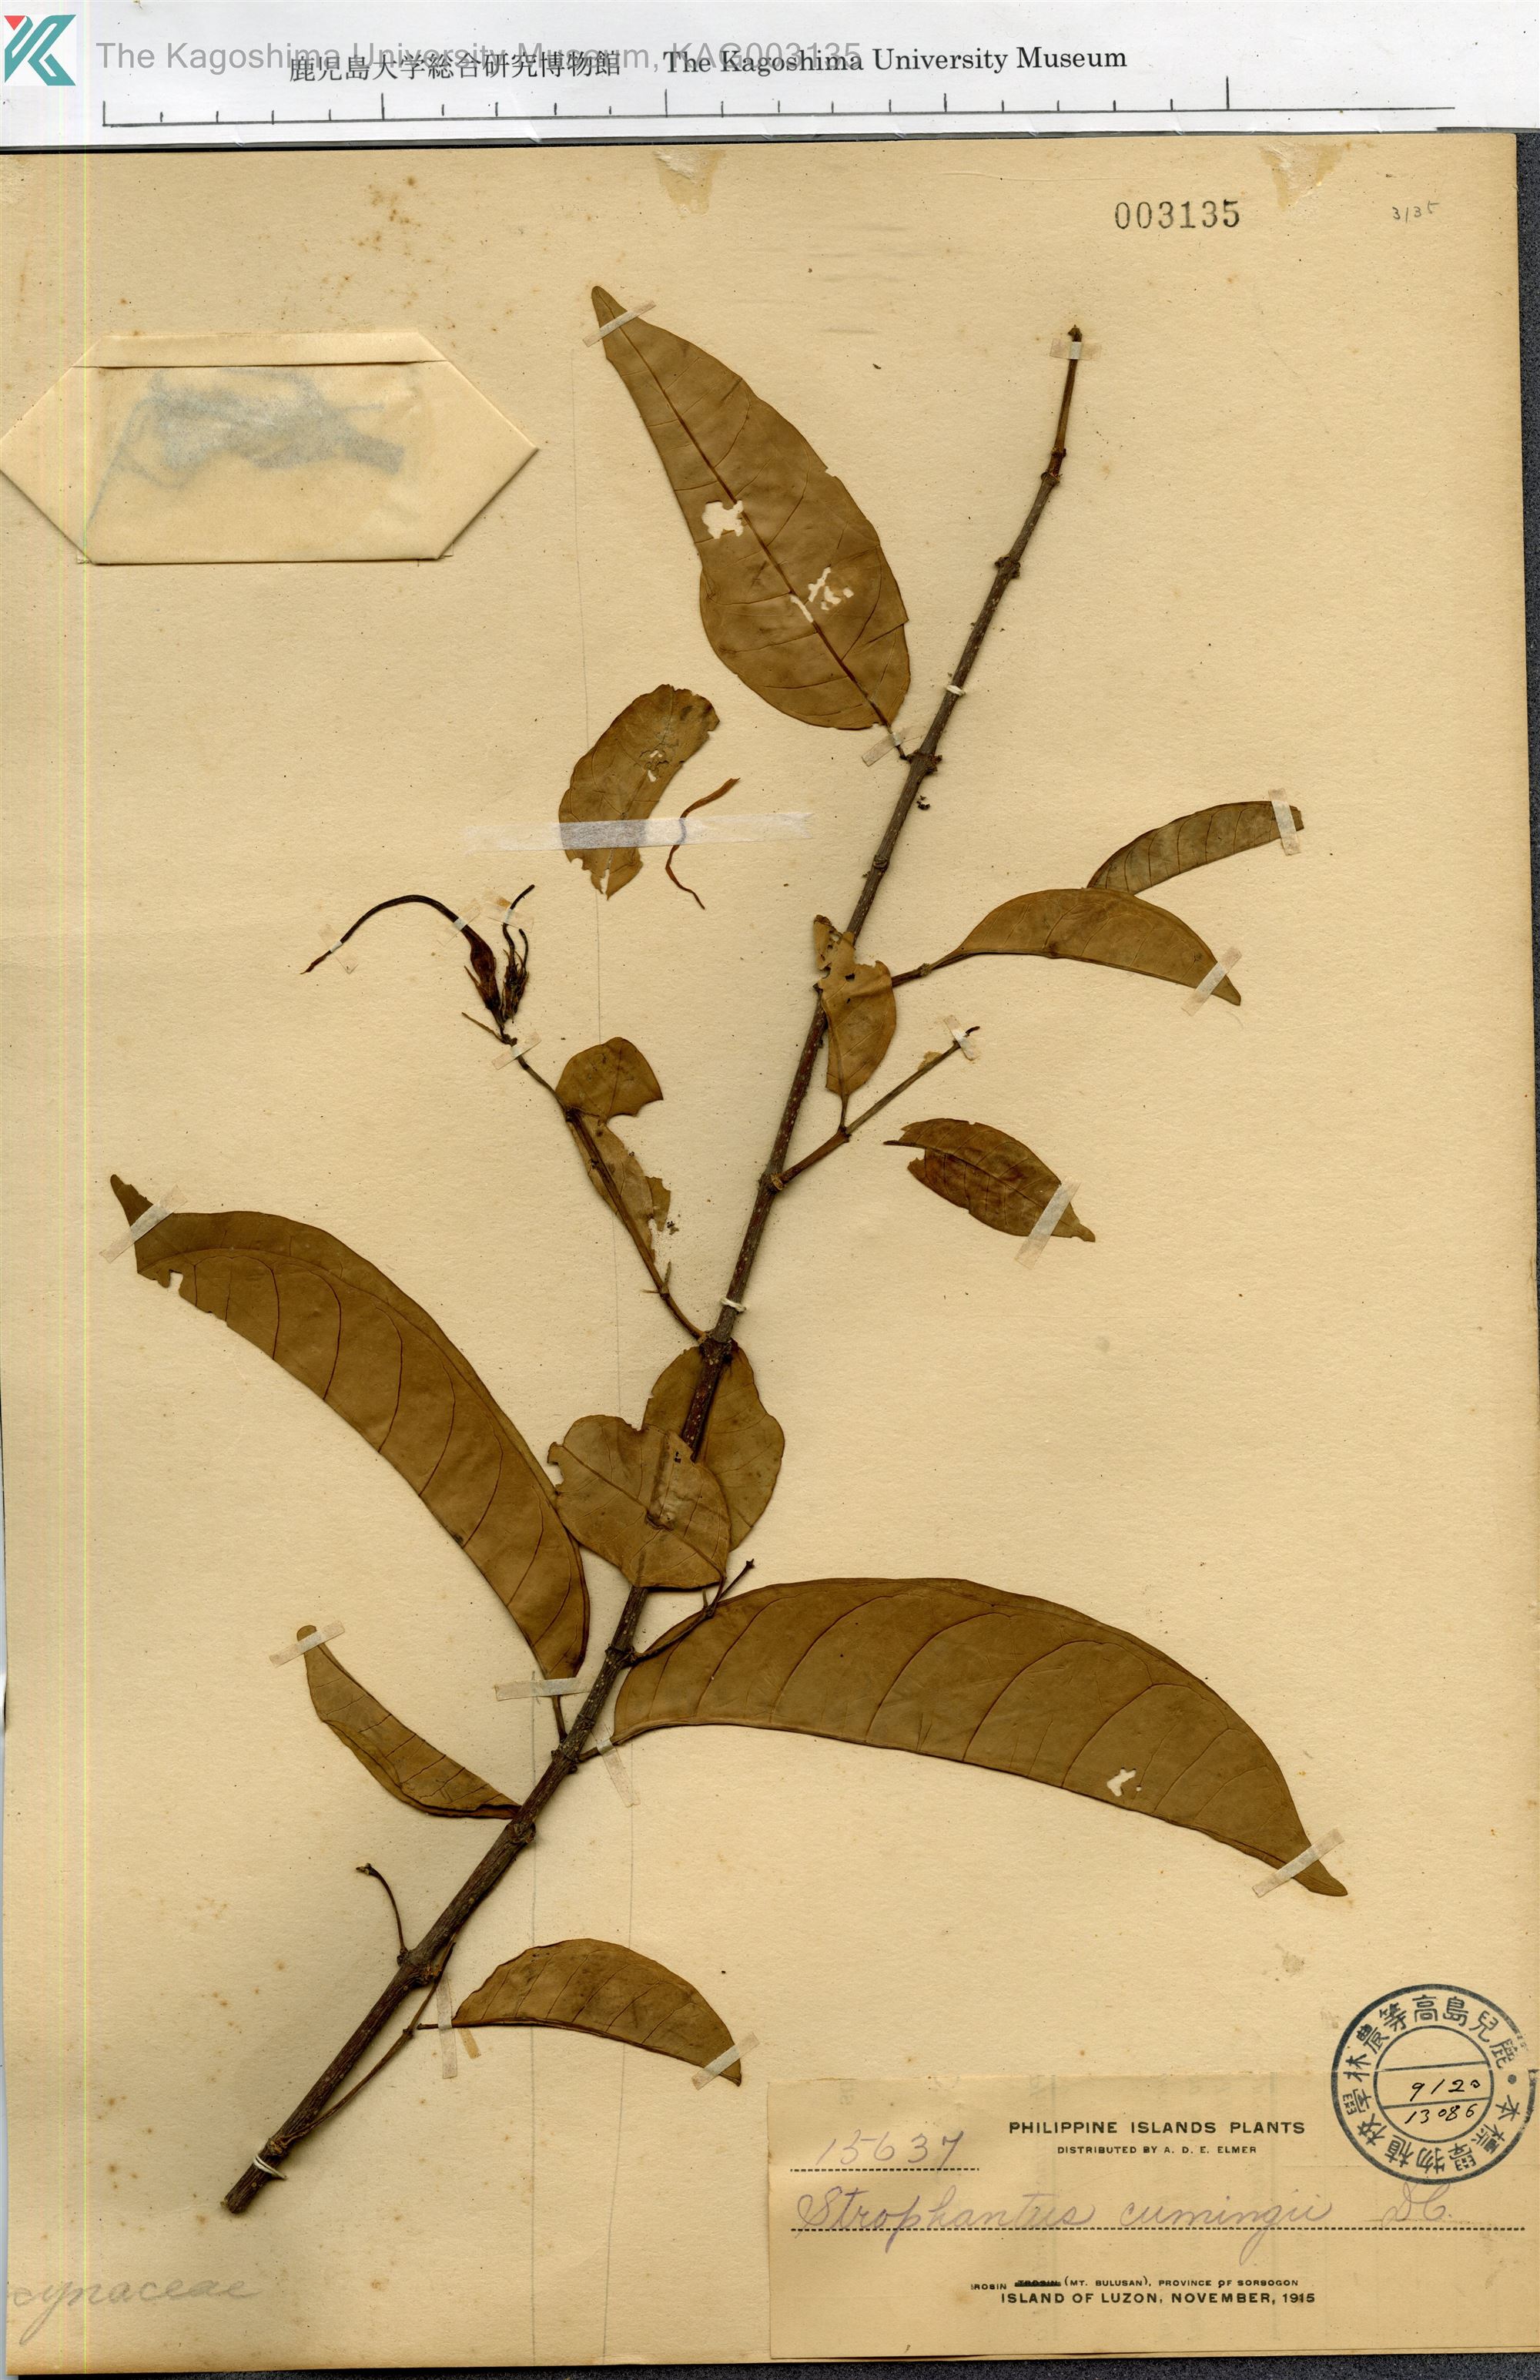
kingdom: Plantae
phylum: Tracheophyta
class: Magnoliopsida
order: Gentianales
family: Apocynaceae
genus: Strophanthus
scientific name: Strophanthus
